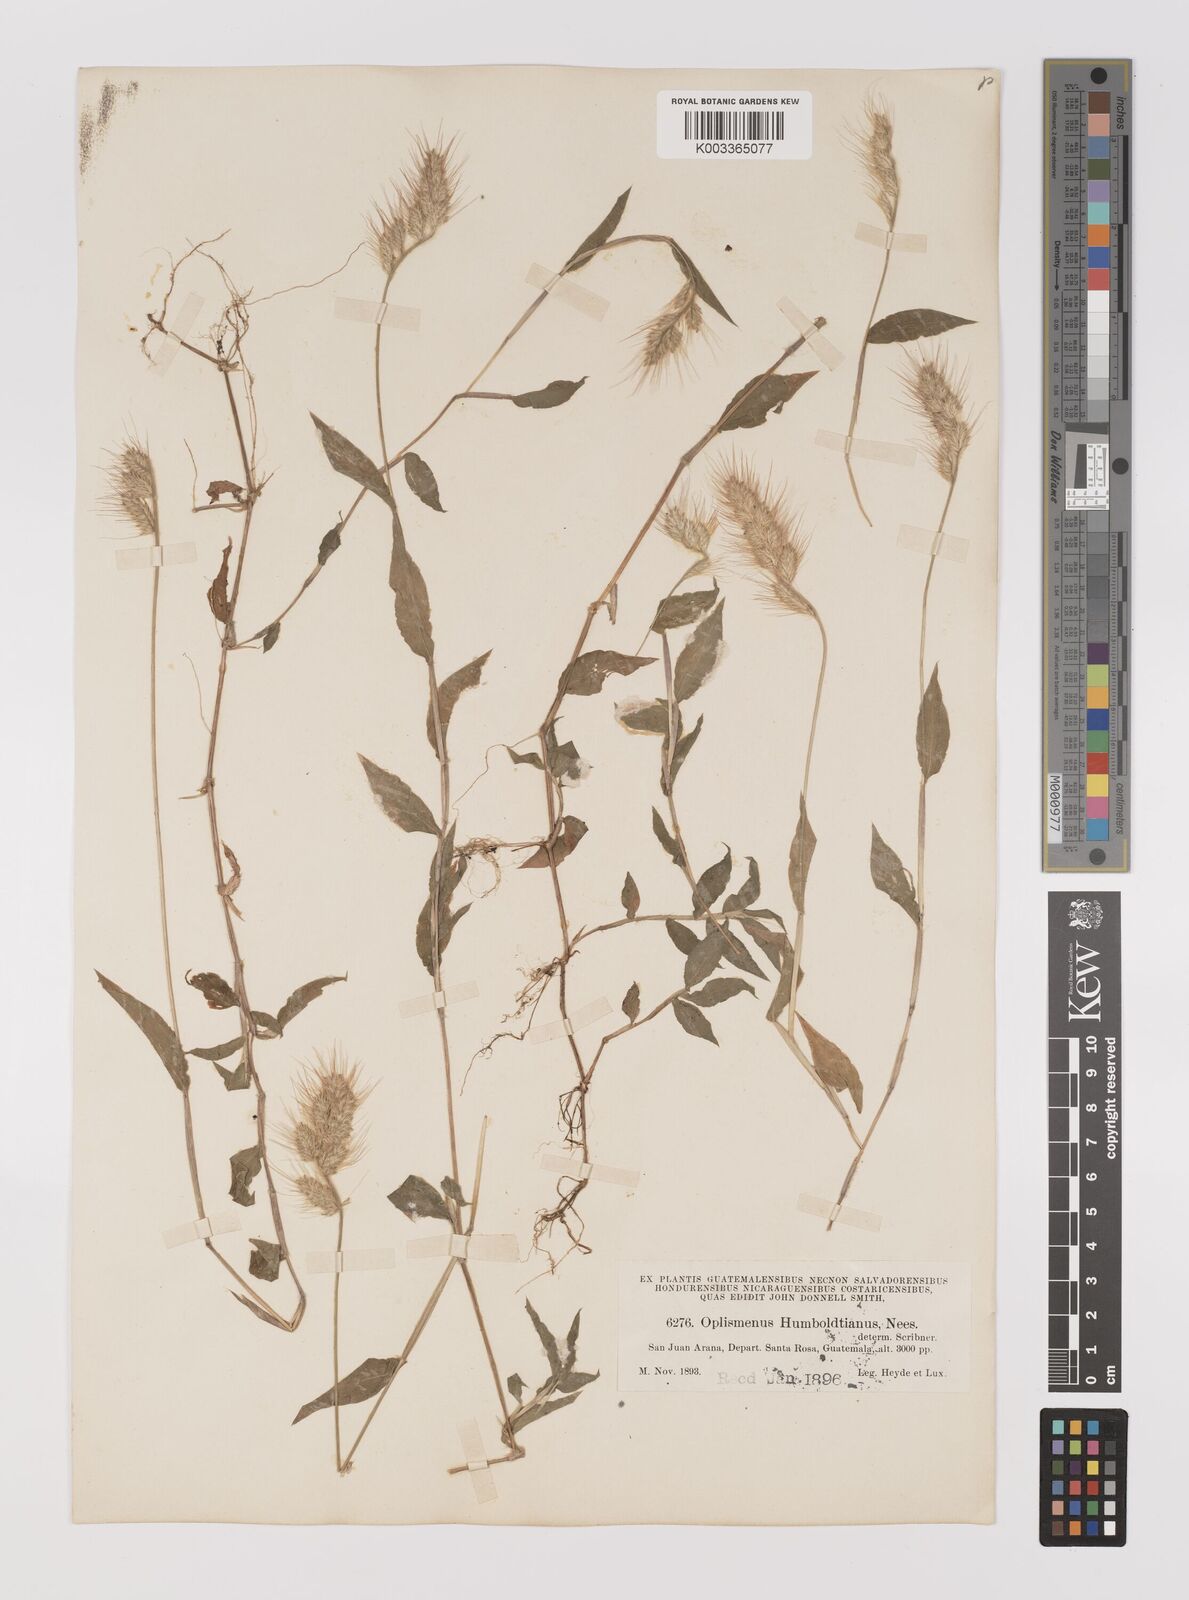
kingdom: Plantae
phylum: Tracheophyta
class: Liliopsida
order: Poales
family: Poaceae
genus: Oplismenus
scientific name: Oplismenus burmanni
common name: Burmann's basketgrass
